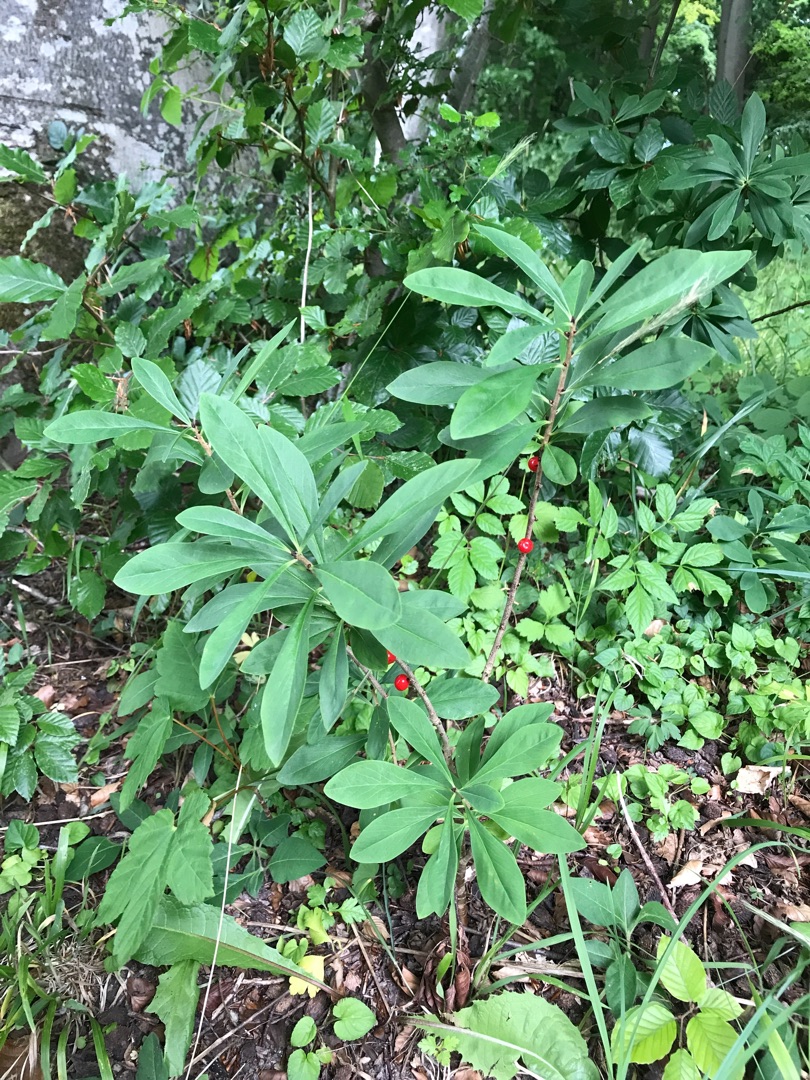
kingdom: Plantae
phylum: Tracheophyta
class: Magnoliopsida
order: Malvales
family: Thymelaeaceae
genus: Daphne
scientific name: Daphne mezereum
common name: Pebertræ
